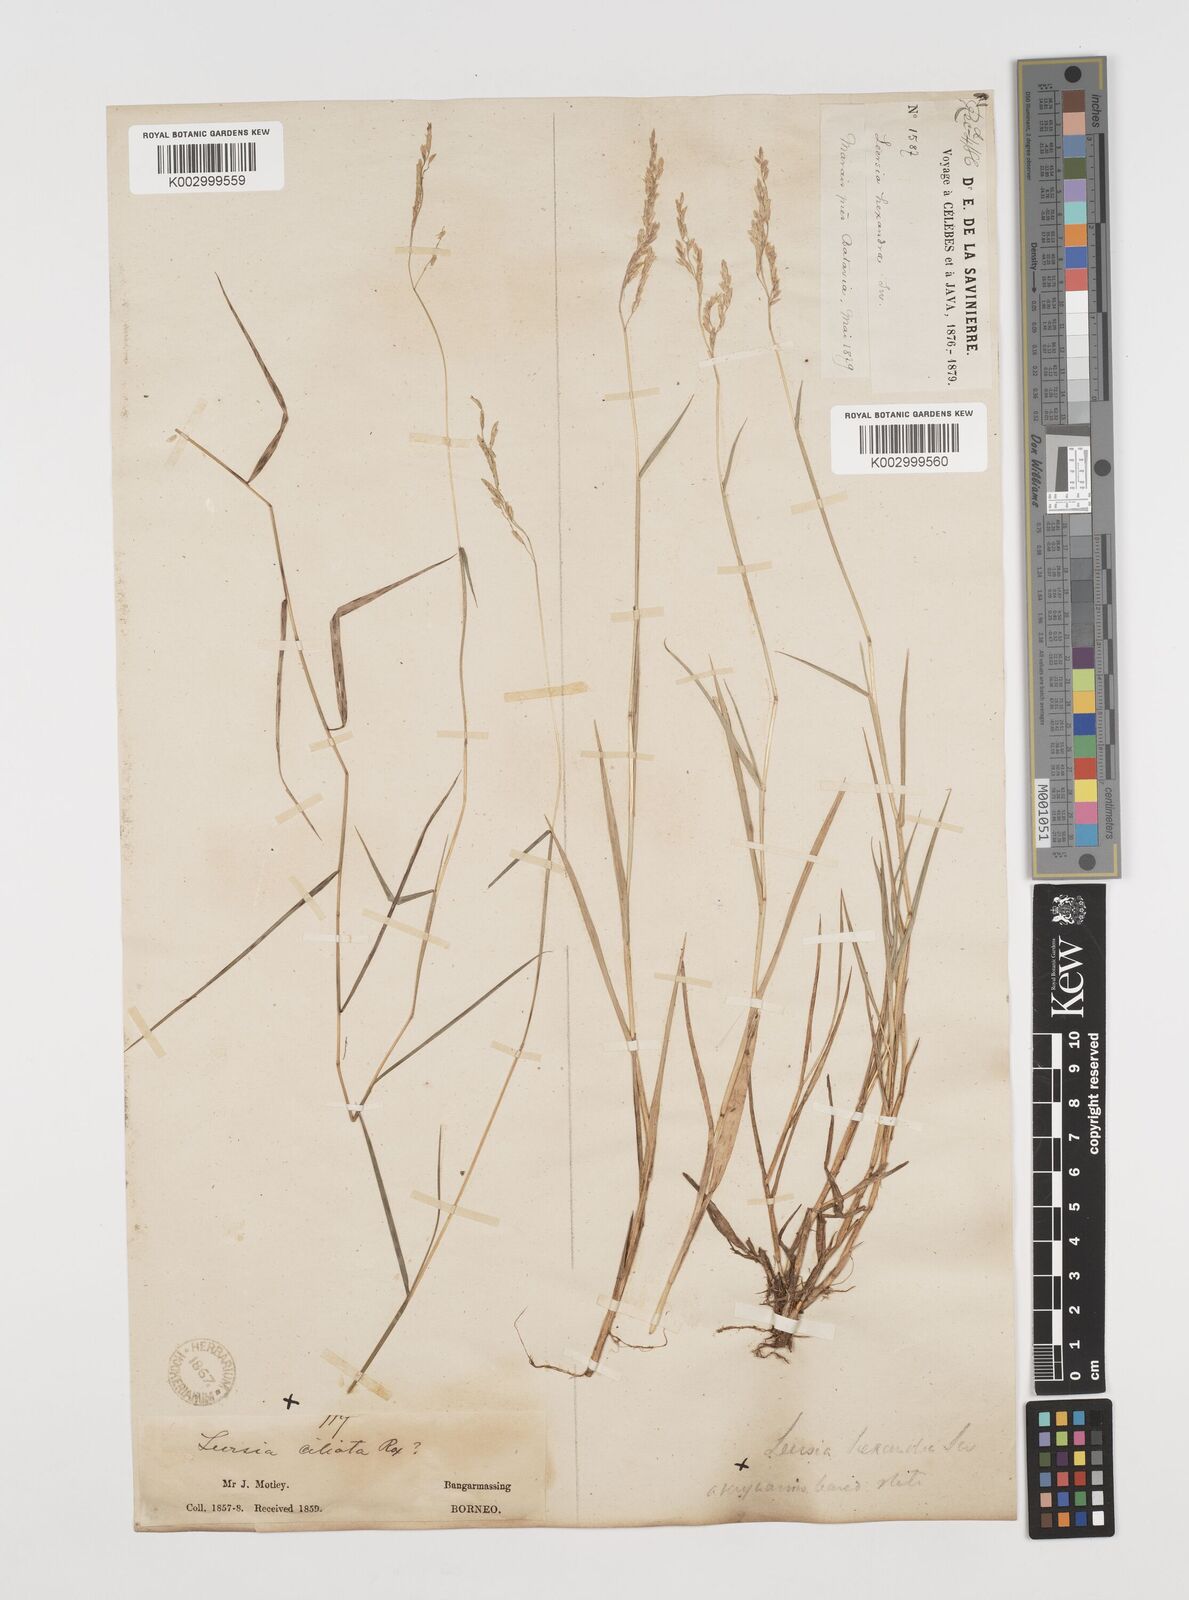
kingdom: Plantae
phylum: Tracheophyta
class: Liliopsida
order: Poales
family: Poaceae
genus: Leersia
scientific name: Leersia hexandra
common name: Southern cut grass
